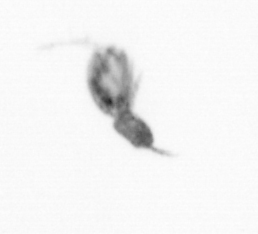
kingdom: Animalia
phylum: Arthropoda
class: Copepoda
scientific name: Copepoda
